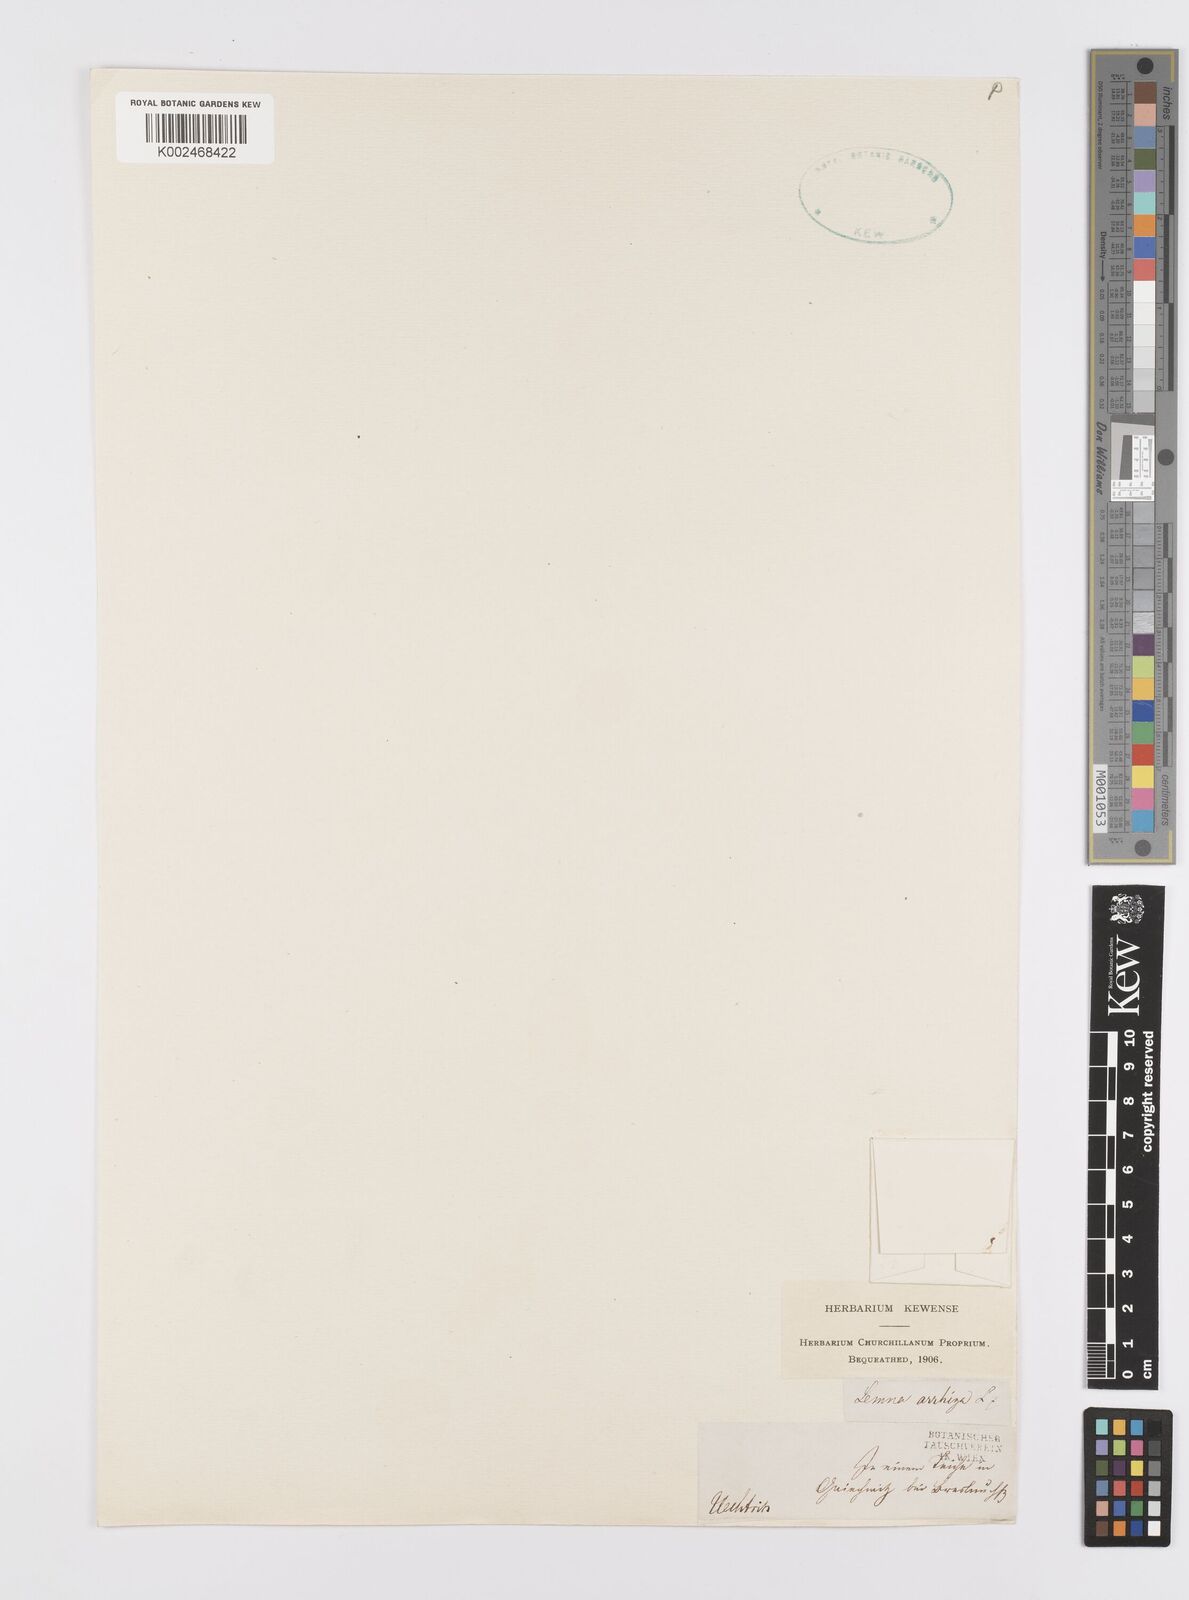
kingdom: Plantae
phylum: Tracheophyta
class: Liliopsida
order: Alismatales
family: Araceae
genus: Wolffia
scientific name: Wolffia arrhiza
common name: Rootless duckweed
